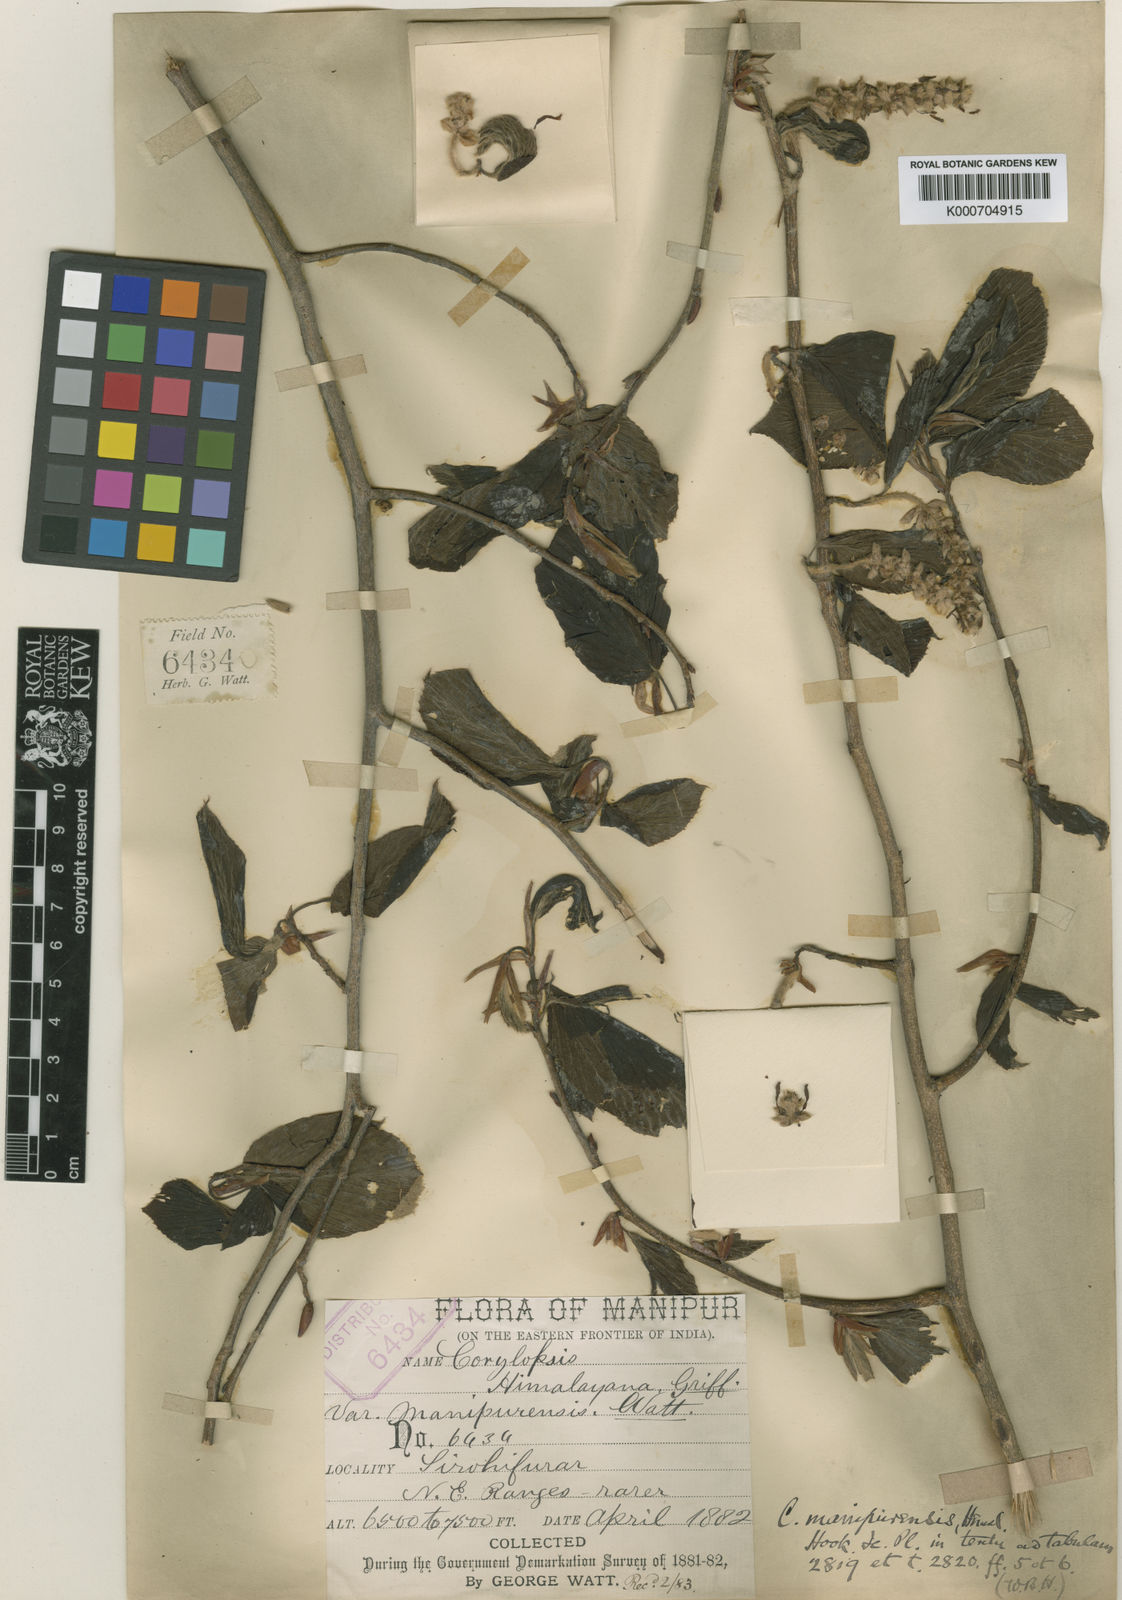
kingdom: Plantae
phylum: Tracheophyta
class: Magnoliopsida
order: Saxifragales
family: Hamamelidaceae
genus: Corylopsis
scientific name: Corylopsis himalayana
